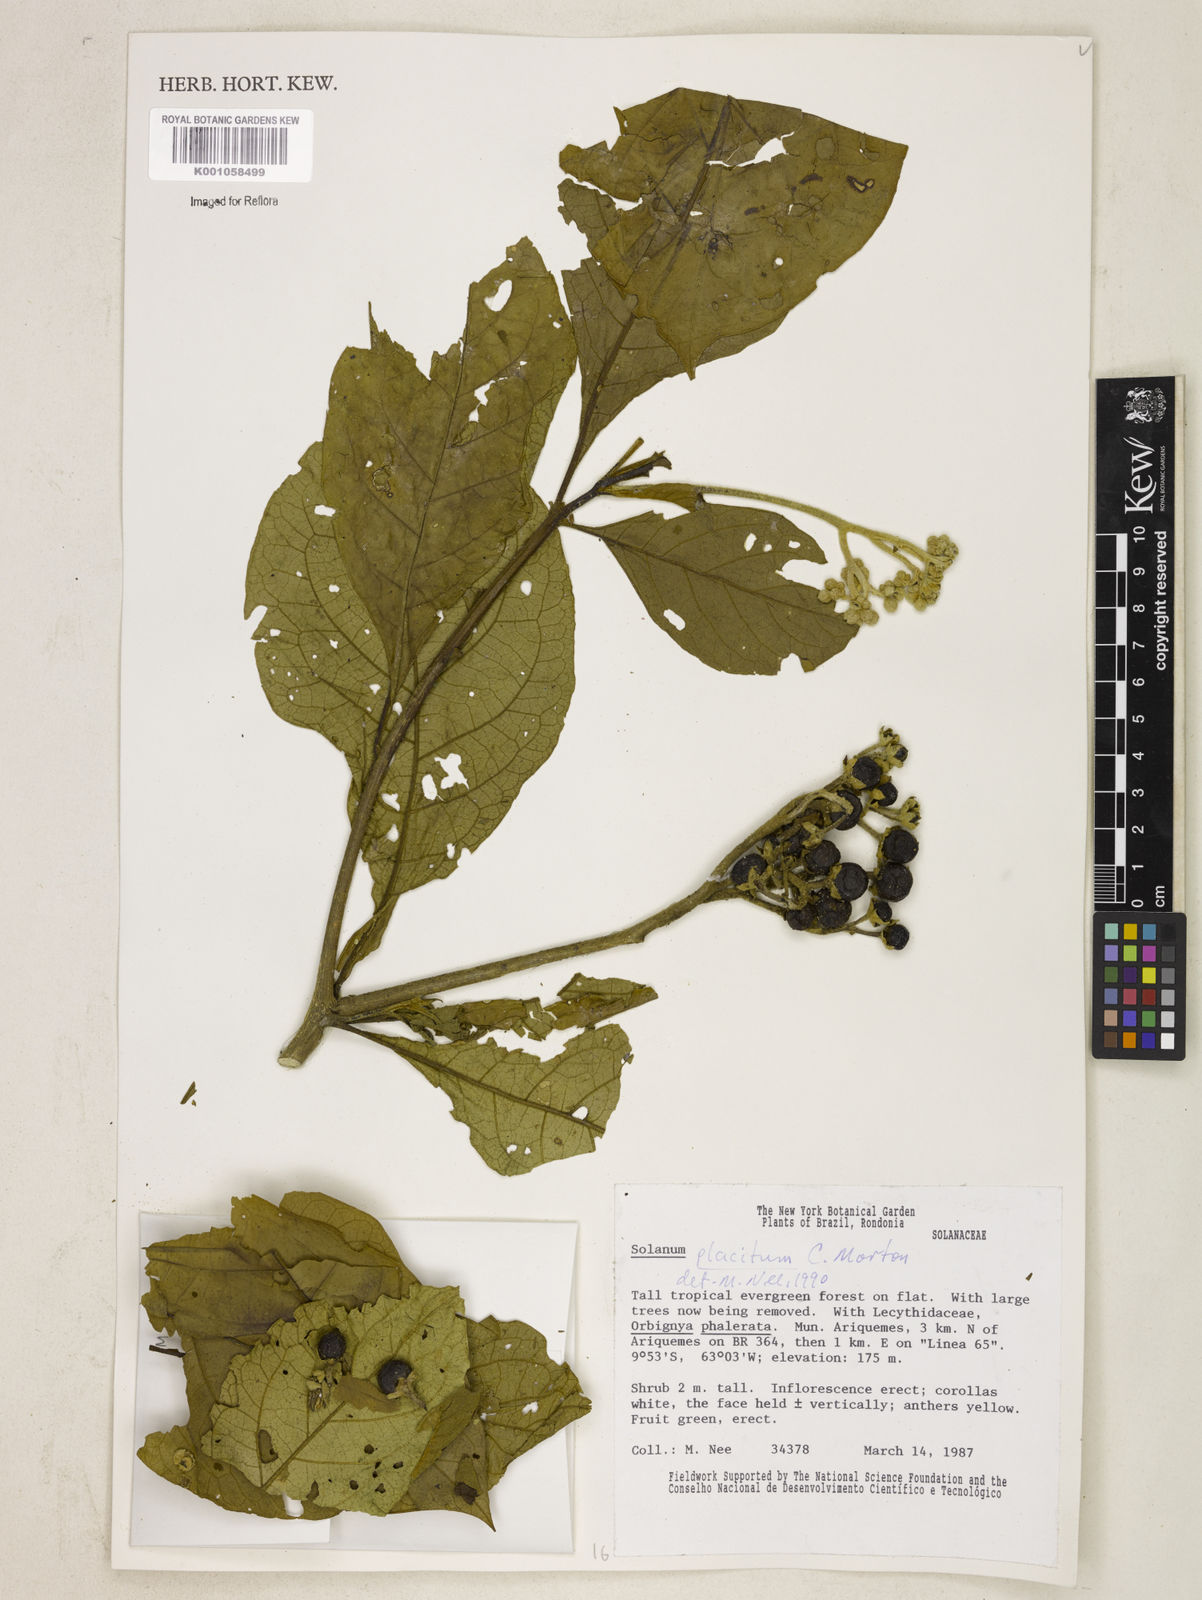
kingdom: Plantae
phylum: Tracheophyta
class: Magnoliopsida
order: Solanales
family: Solanaceae
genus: Solanum
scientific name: Solanum placitum
